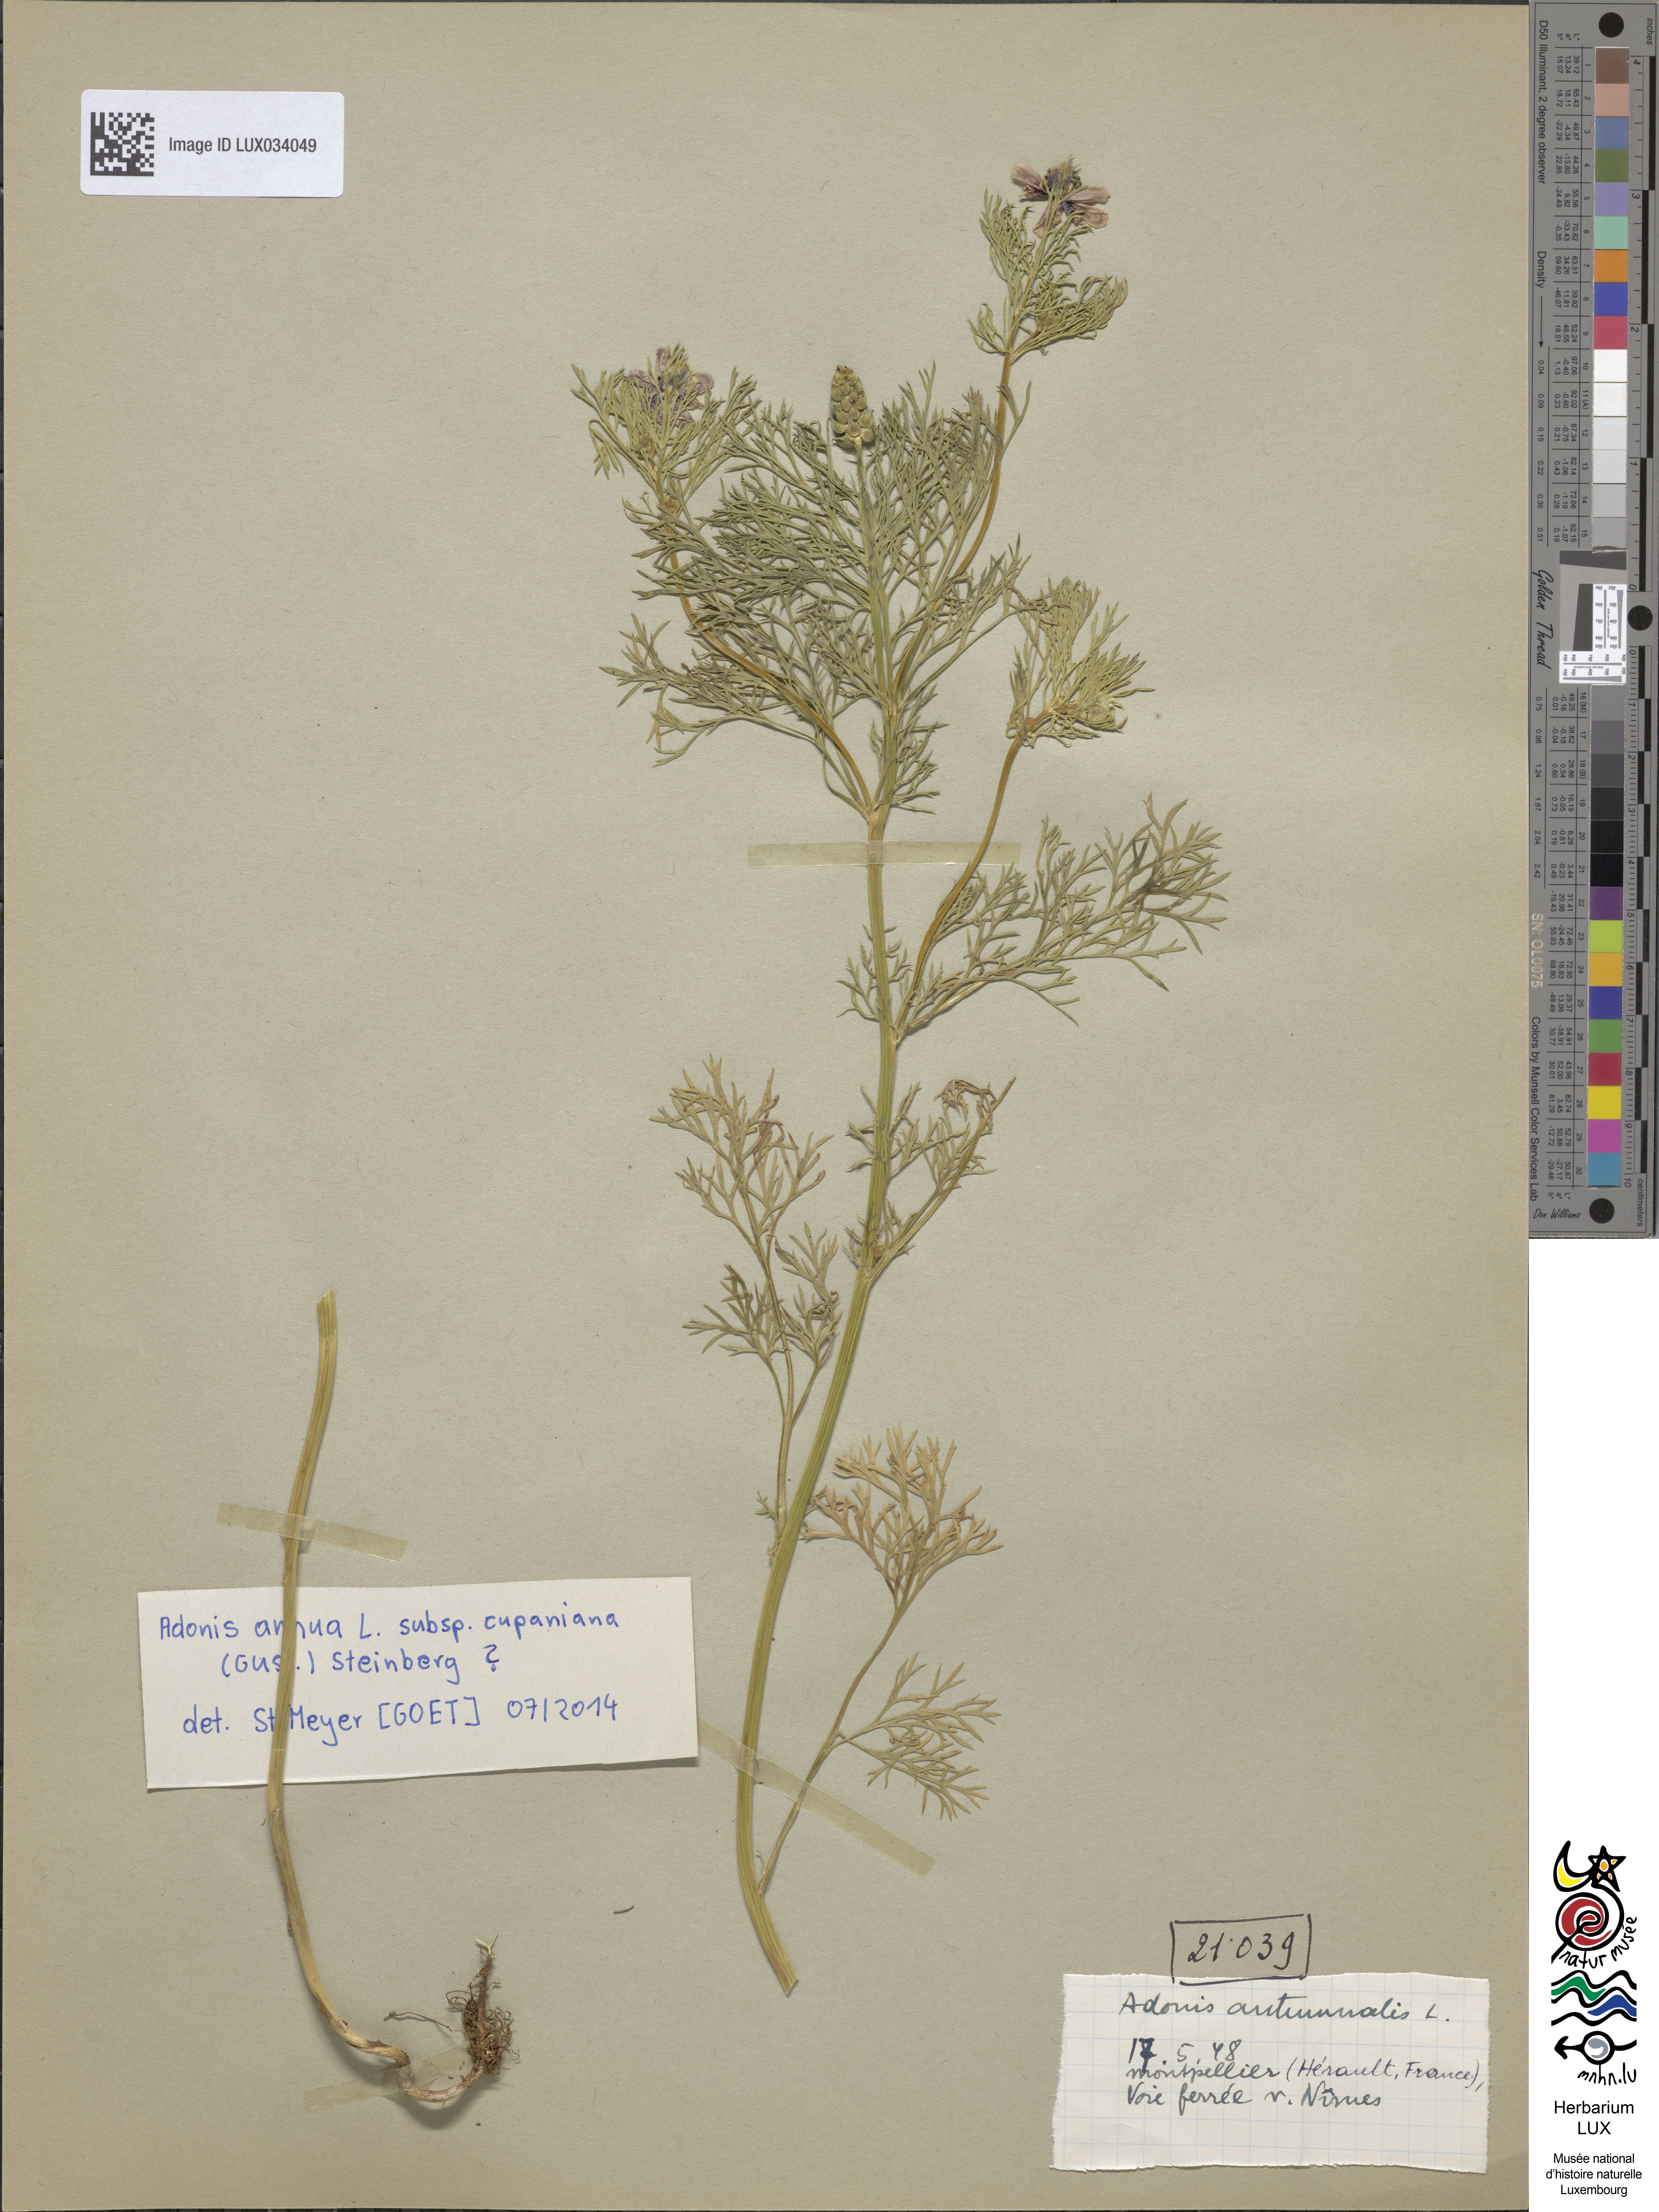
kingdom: Plantae
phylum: Tracheophyta
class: Magnoliopsida
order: Ranunculales
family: Ranunculaceae
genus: Adonis
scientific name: Adonis annua
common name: Pheasant's-eye
